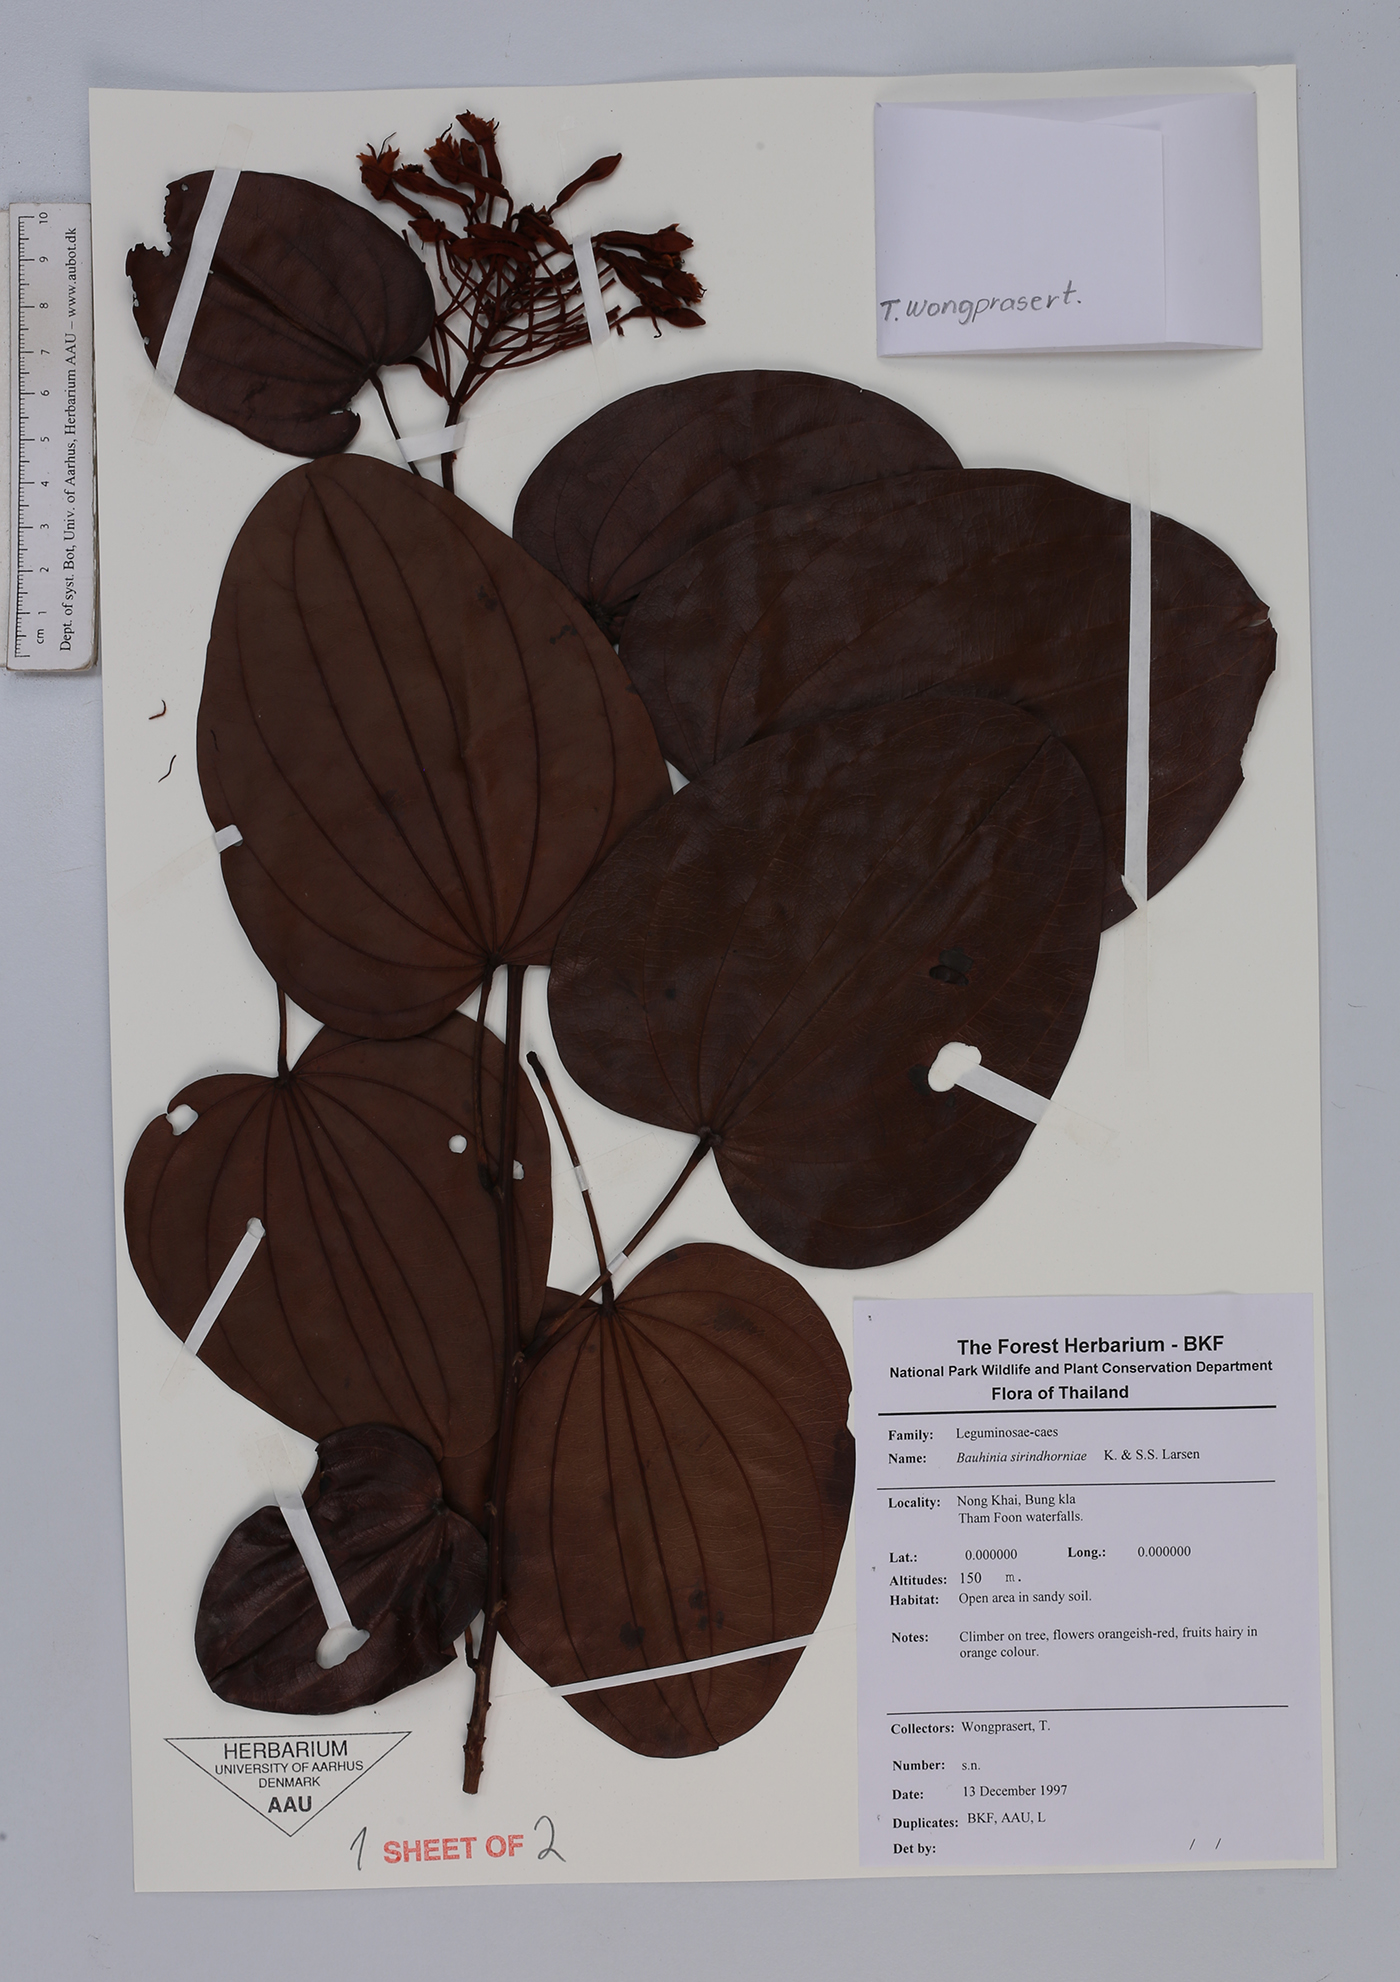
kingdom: Plantae
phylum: Tracheophyta
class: Magnoliopsida
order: Fabales
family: Fabaceae
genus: Phanera
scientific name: Phanera sirindhorniae
